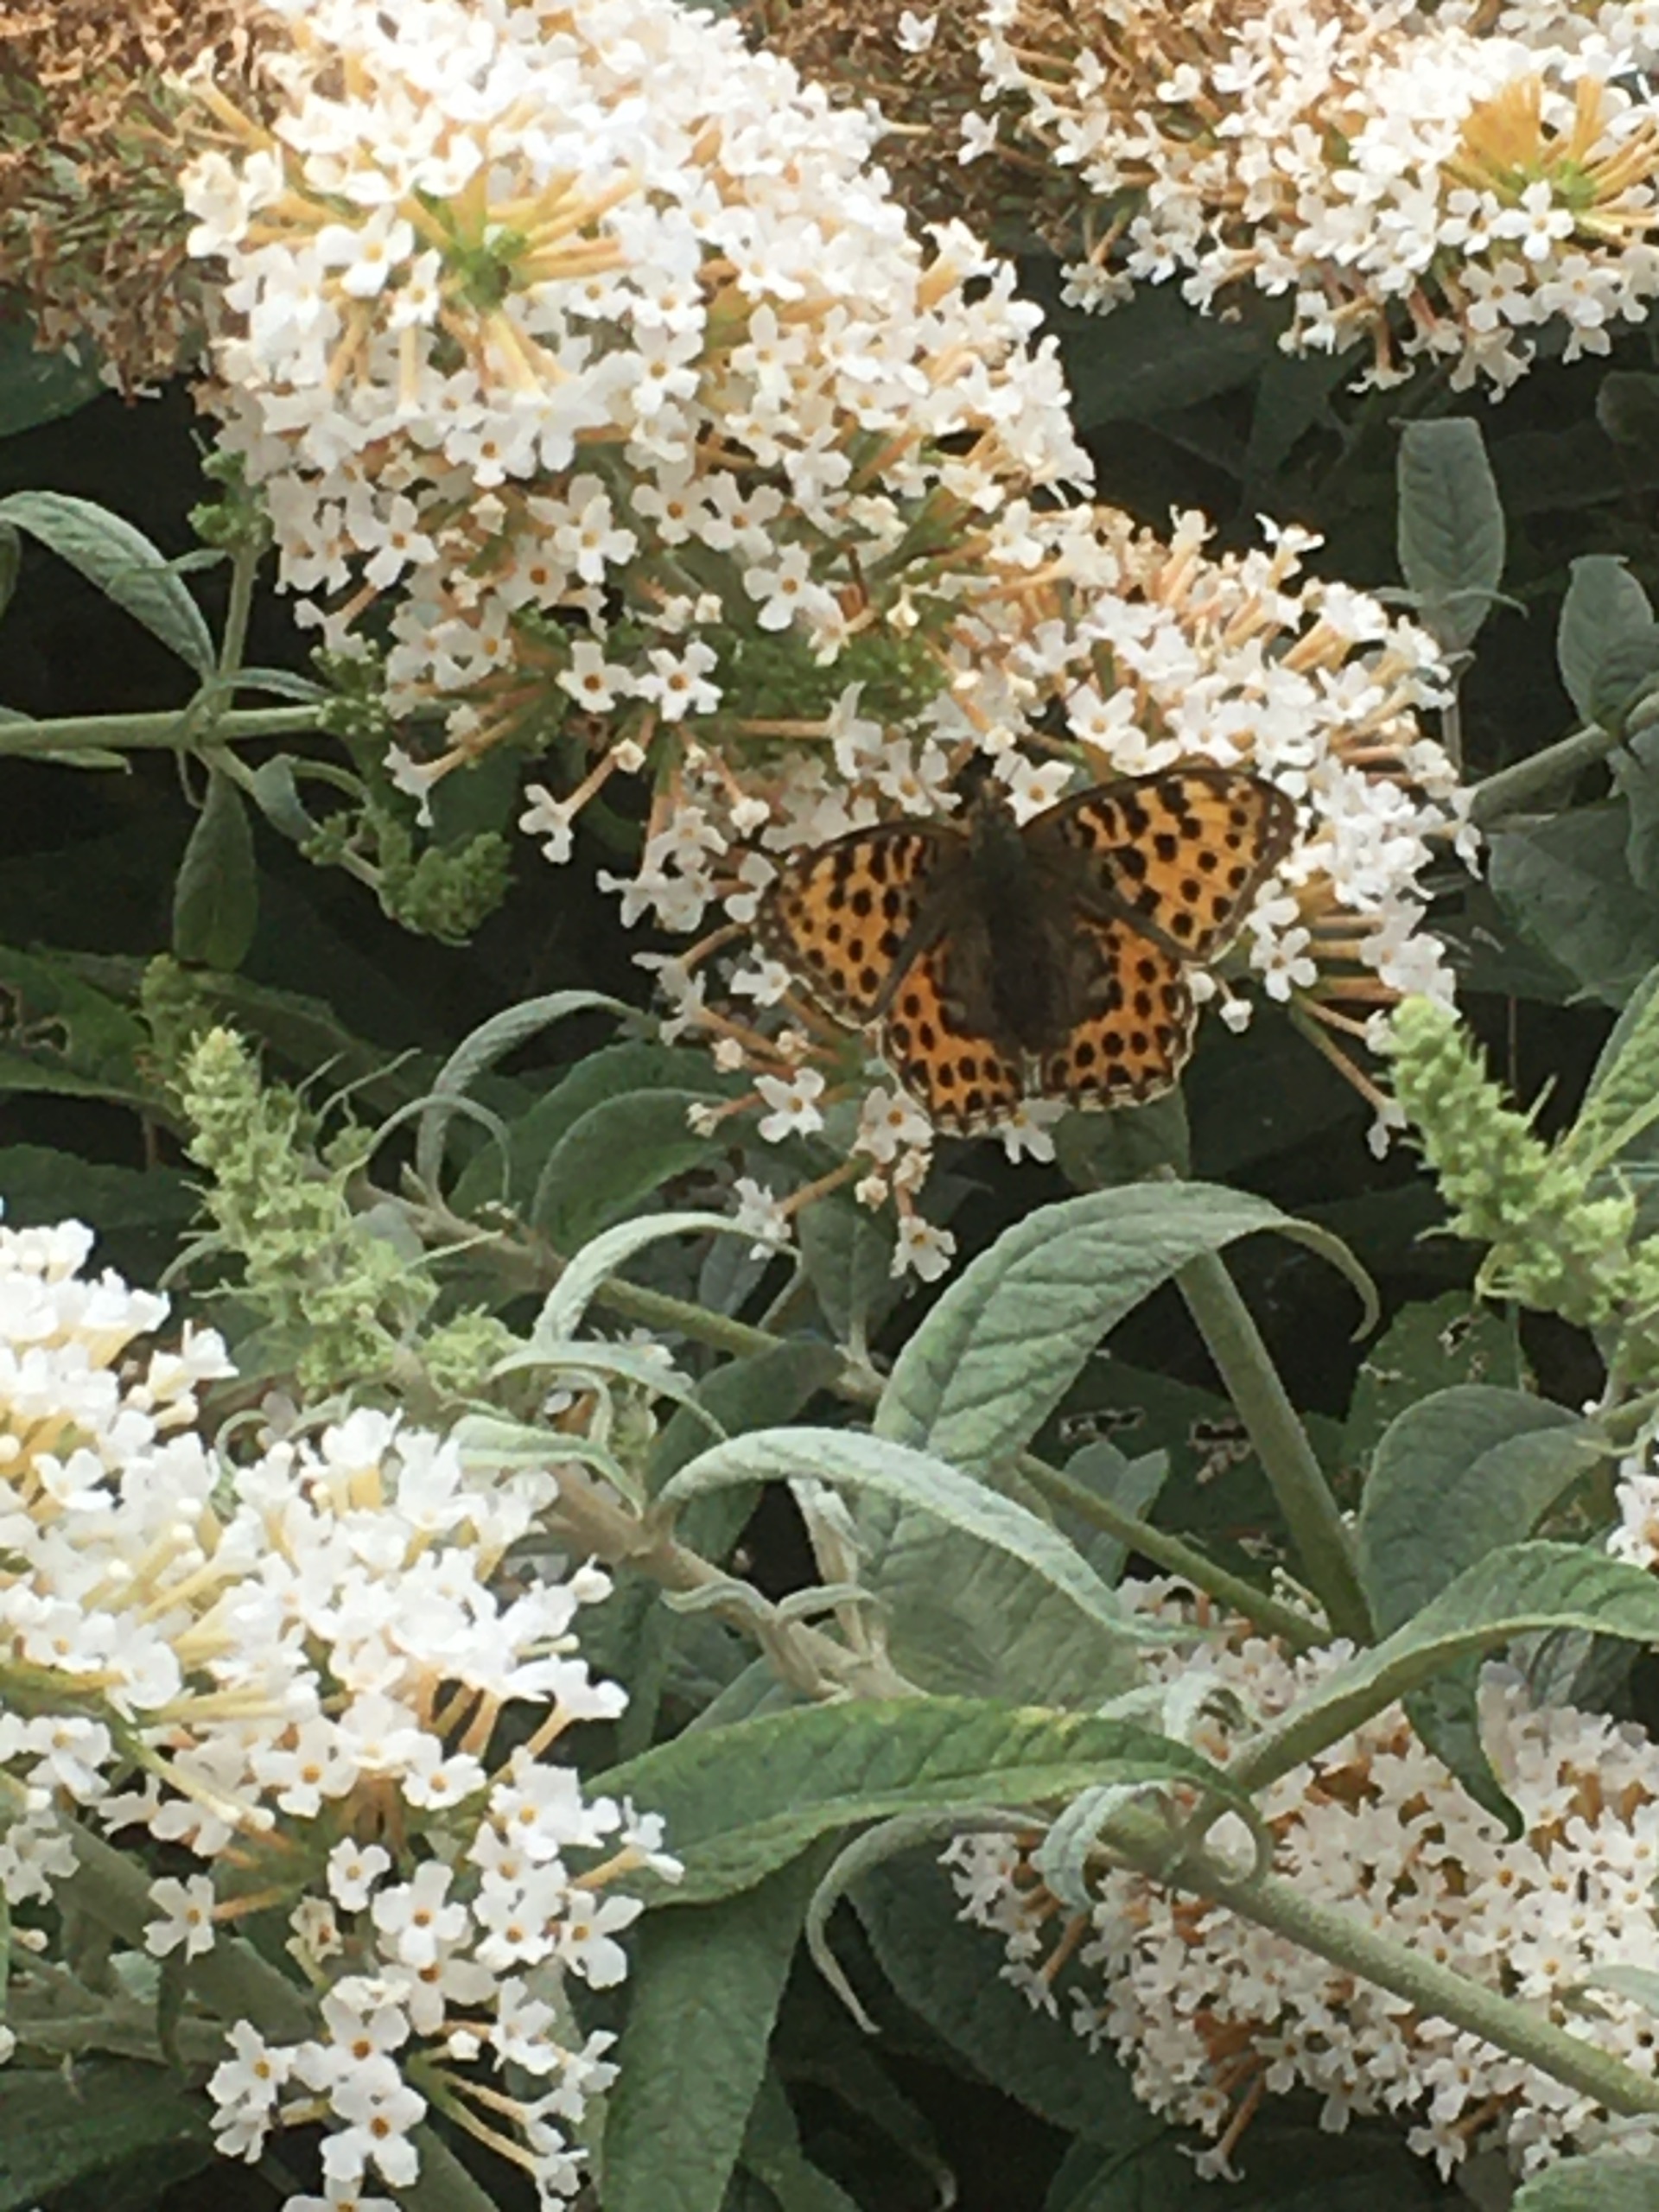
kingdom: Animalia
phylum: Arthropoda
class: Insecta
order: Lepidoptera
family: Nymphalidae
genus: Issoria
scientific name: Issoria lathonia
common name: Storplettet perlemorsommerfugl
